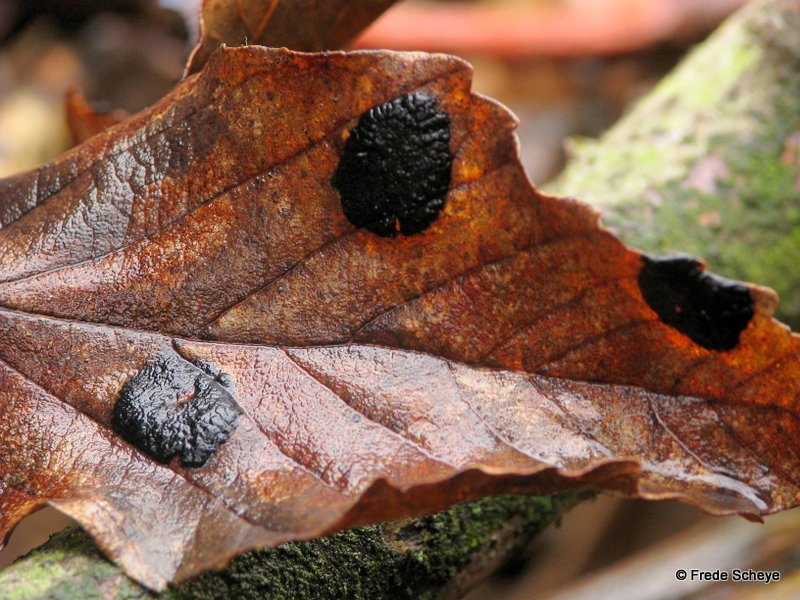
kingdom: Fungi
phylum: Ascomycota
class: Leotiomycetes
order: Rhytismatales
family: Rhytismataceae
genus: Rhytisma
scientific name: Rhytisma acerinum
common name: ahorn-rynkeplet
